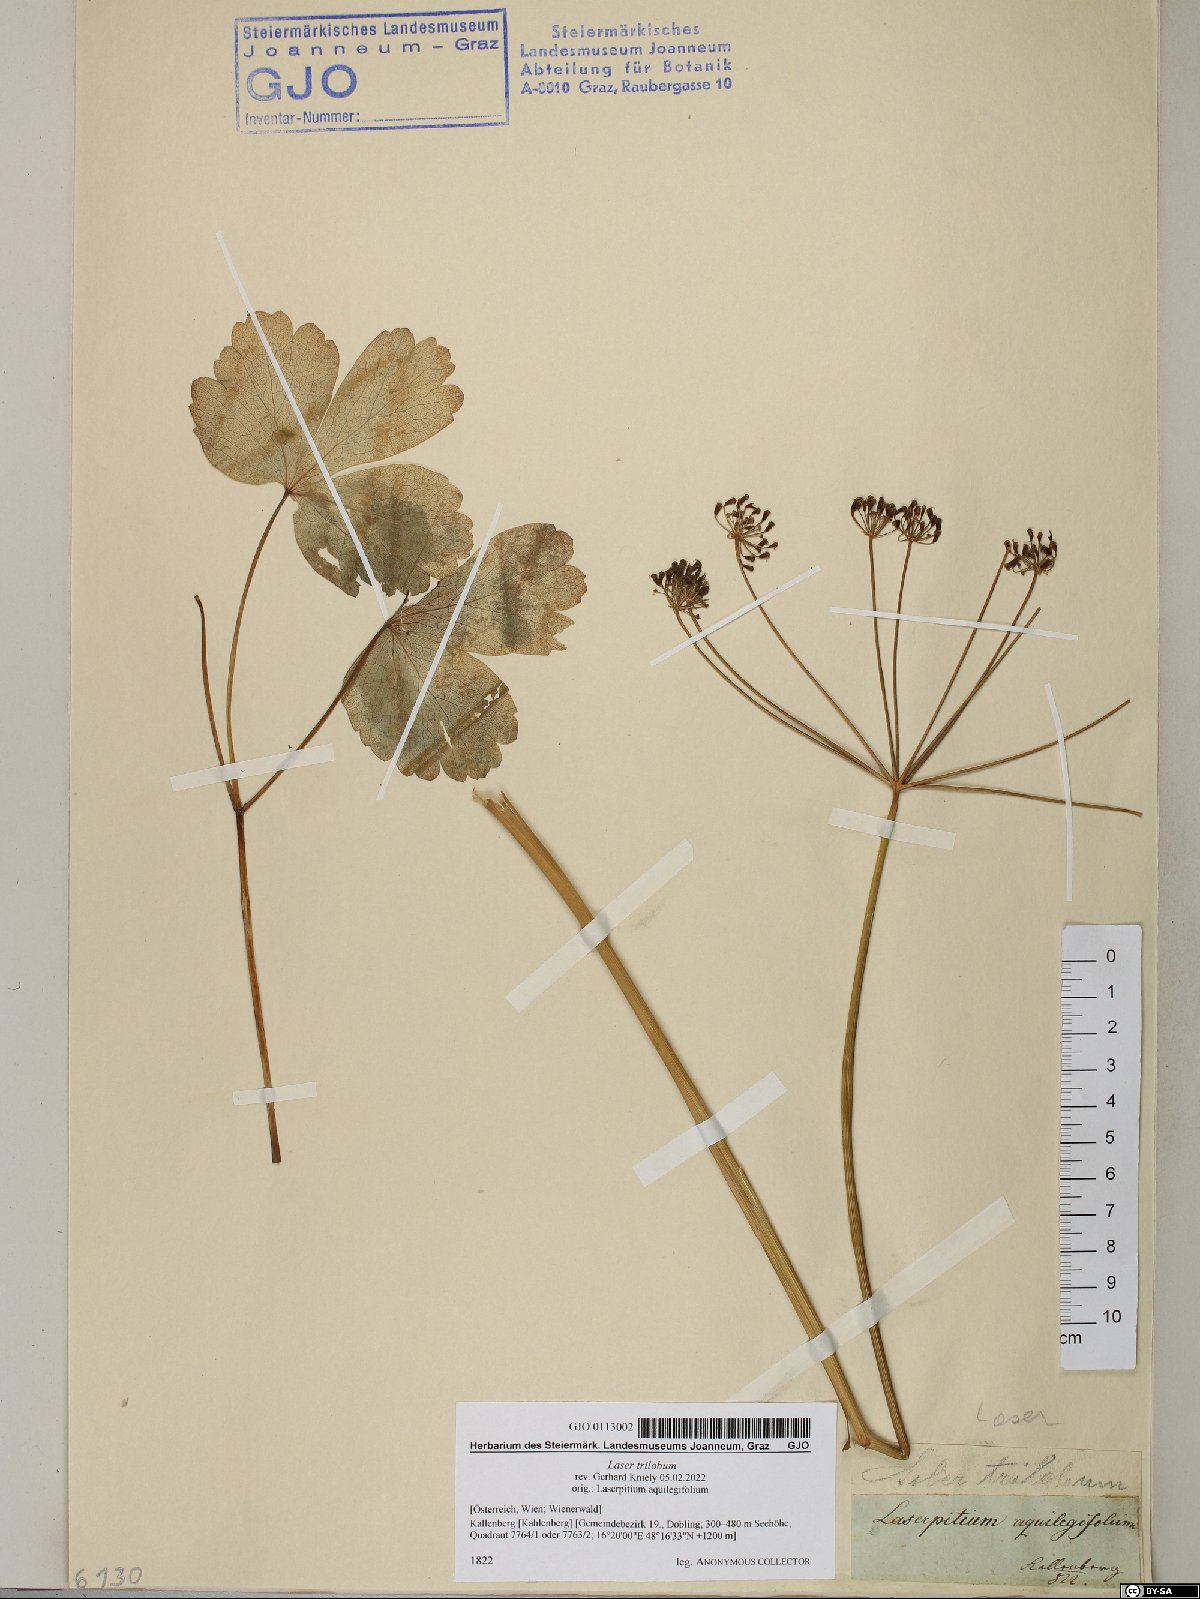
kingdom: Plantae
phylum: Tracheophyta
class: Magnoliopsida
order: Apiales
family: Apiaceae
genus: Laser
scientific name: Laser trilobum
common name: Laser
